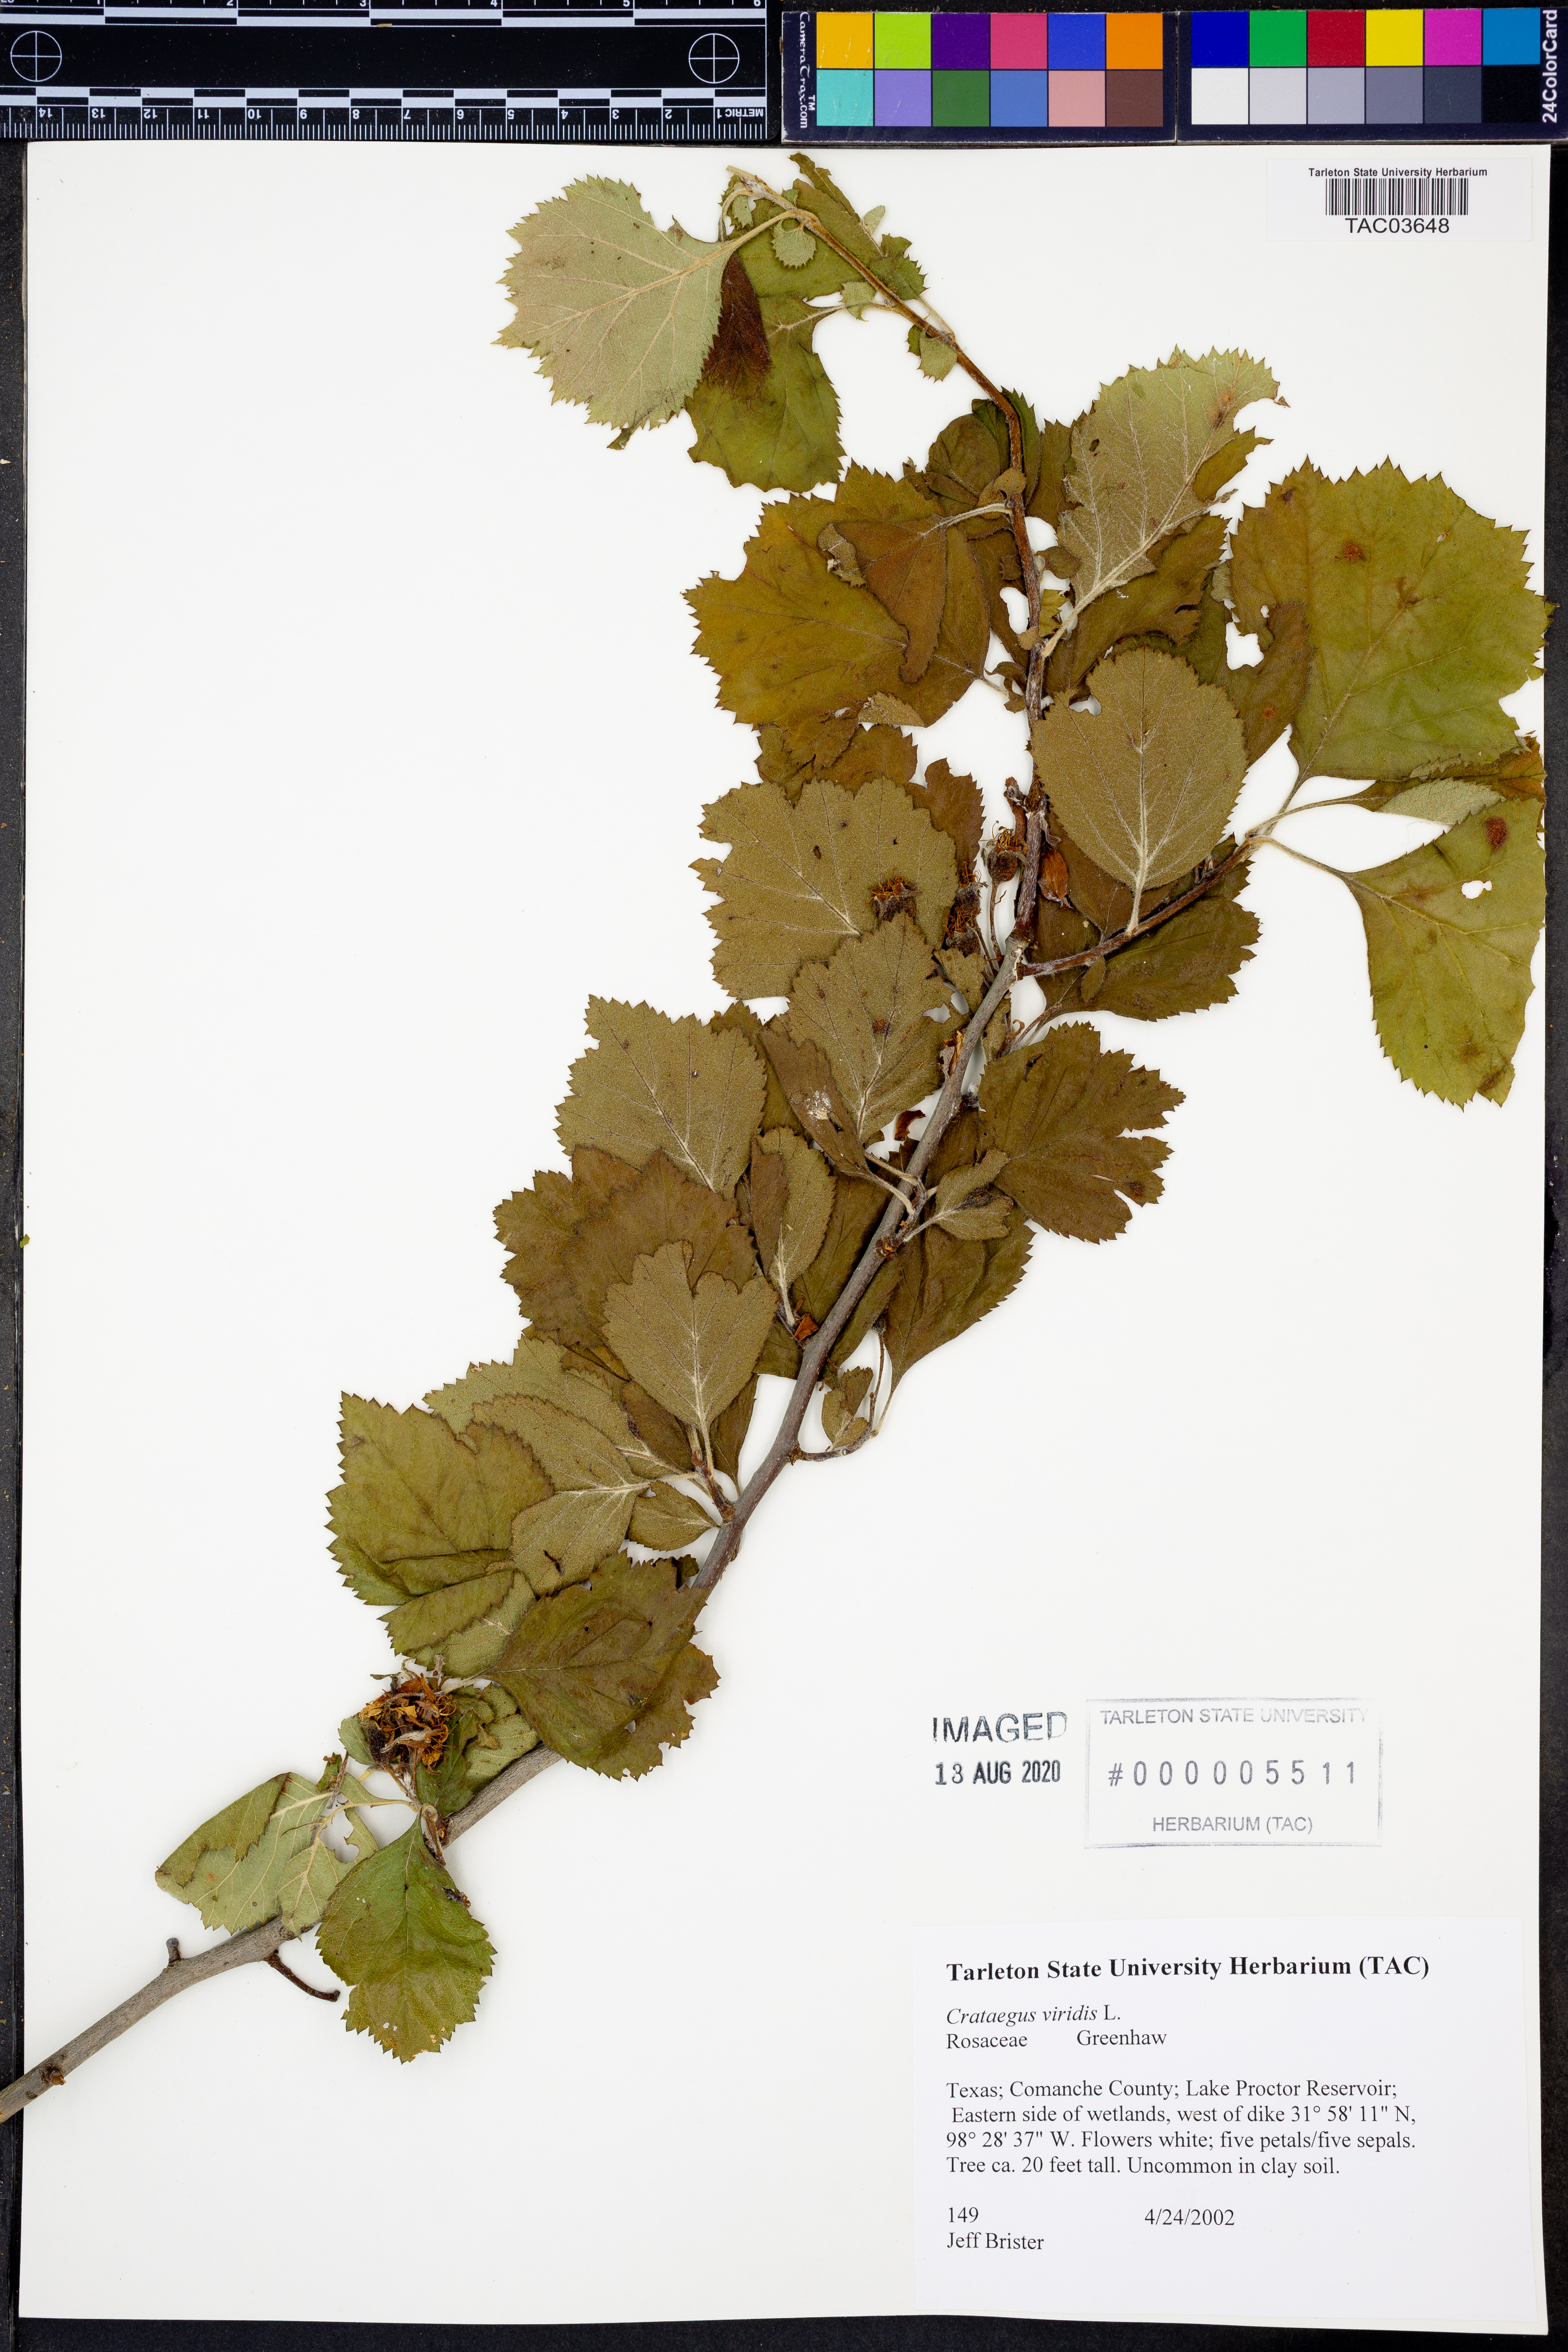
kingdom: Plantae
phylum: Tracheophyta
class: Magnoliopsida
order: Rosales
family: Rosaceae
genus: Crataegus
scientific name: Crataegus viridis
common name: Southernthorn
